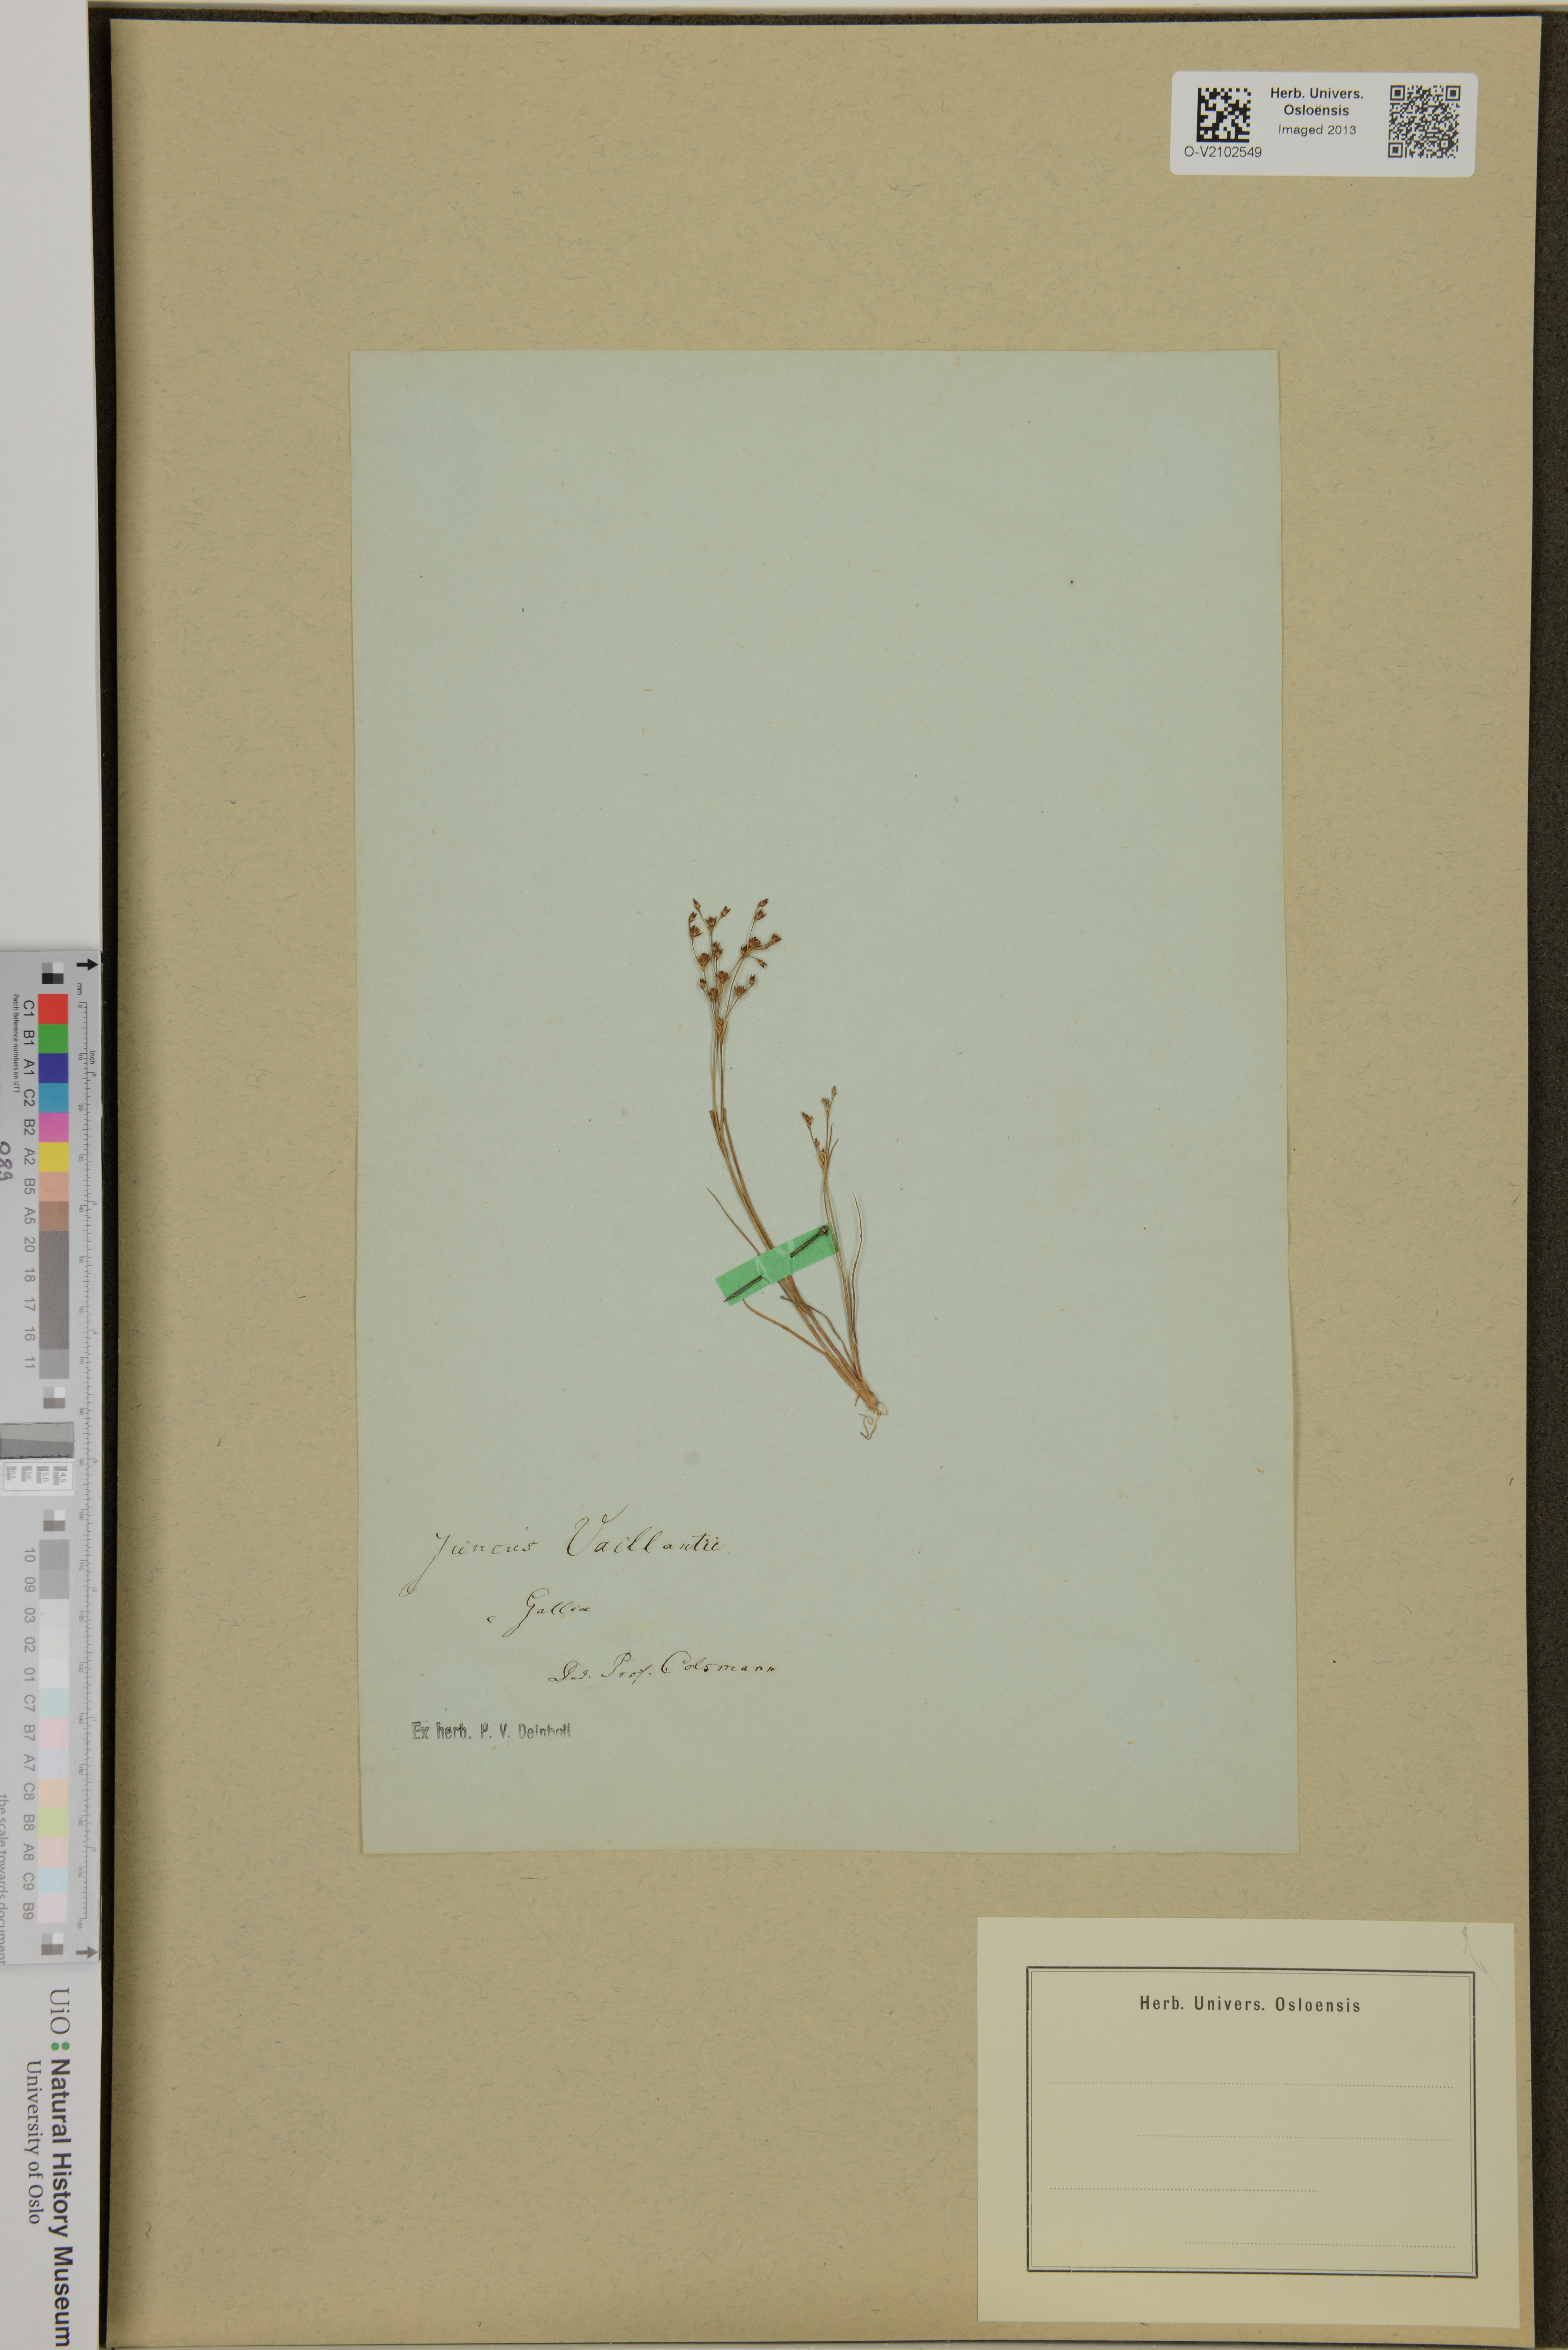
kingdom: Plantae
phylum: Tracheophyta
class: Liliopsida
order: Poales
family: Juncaceae
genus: Juncus
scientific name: Juncus tenageia
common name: Sand rush
